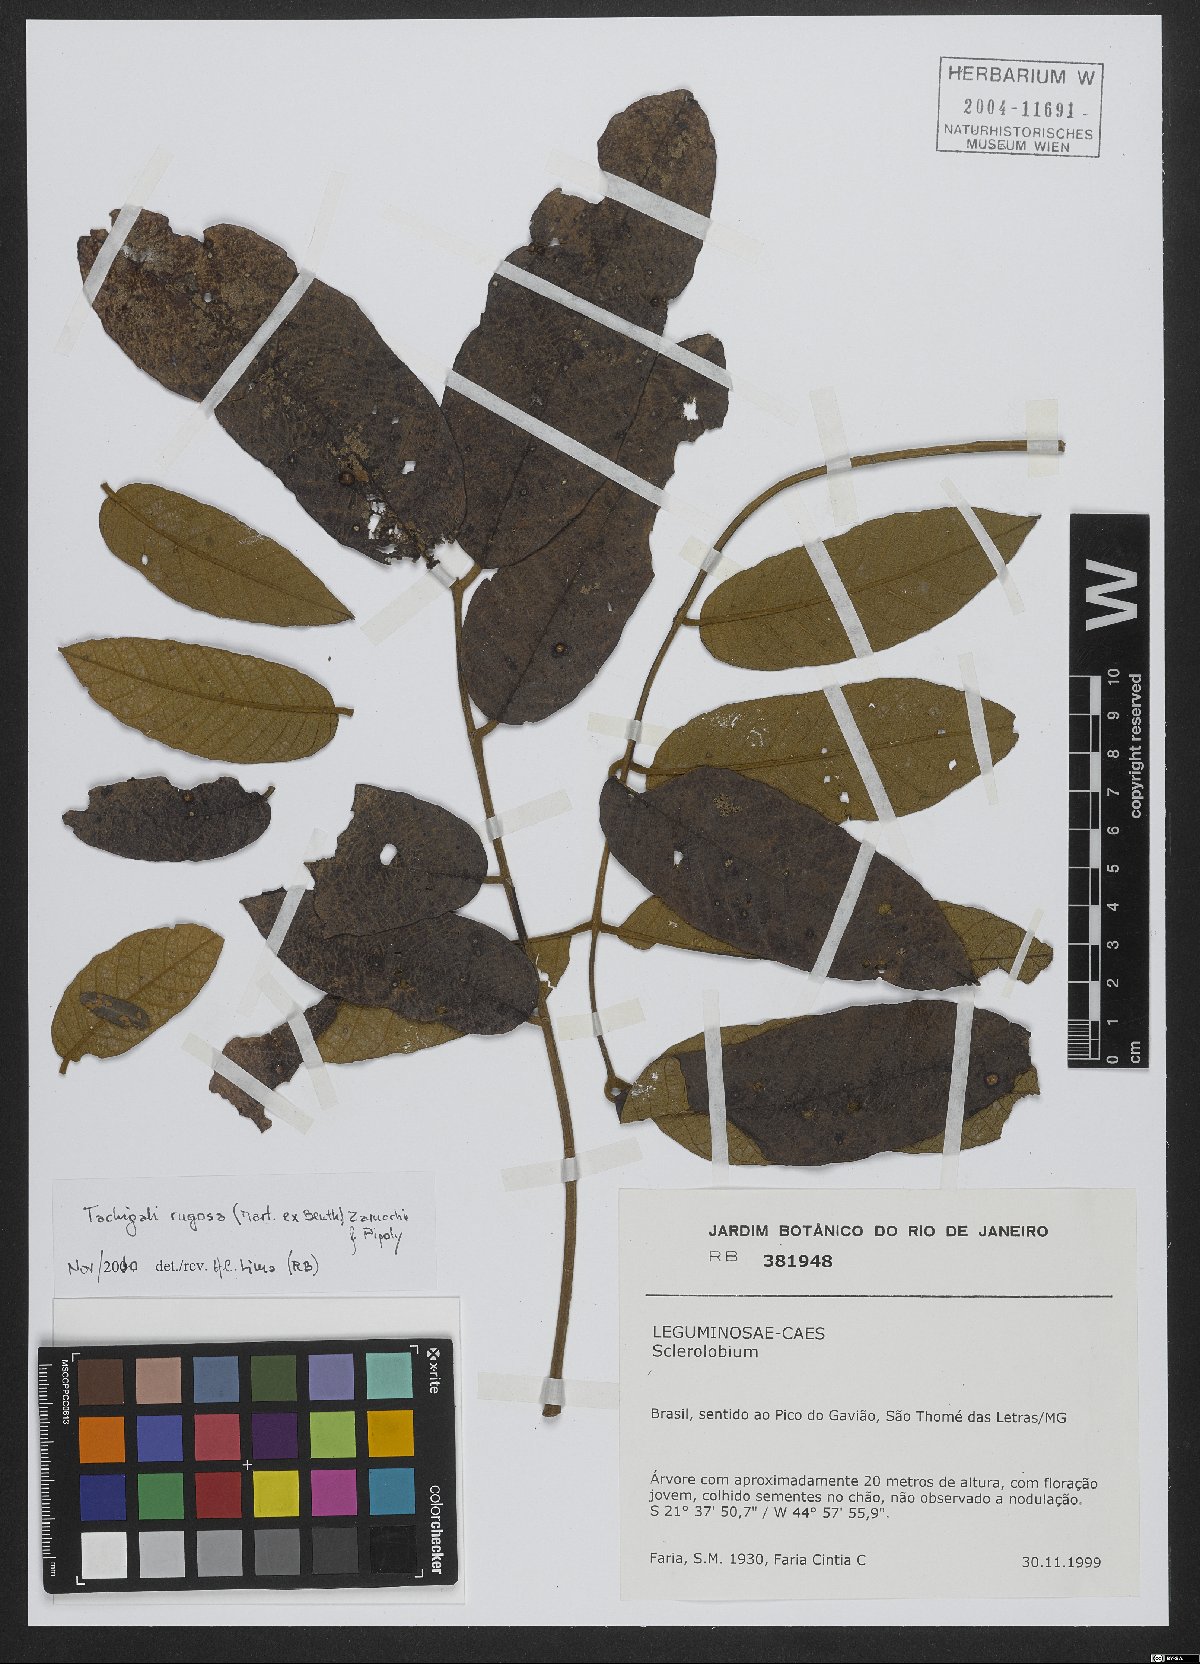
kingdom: Plantae
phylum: Tracheophyta
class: Magnoliopsida
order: Fabales
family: Fabaceae
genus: Tachigali
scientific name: Tachigali rugosa
